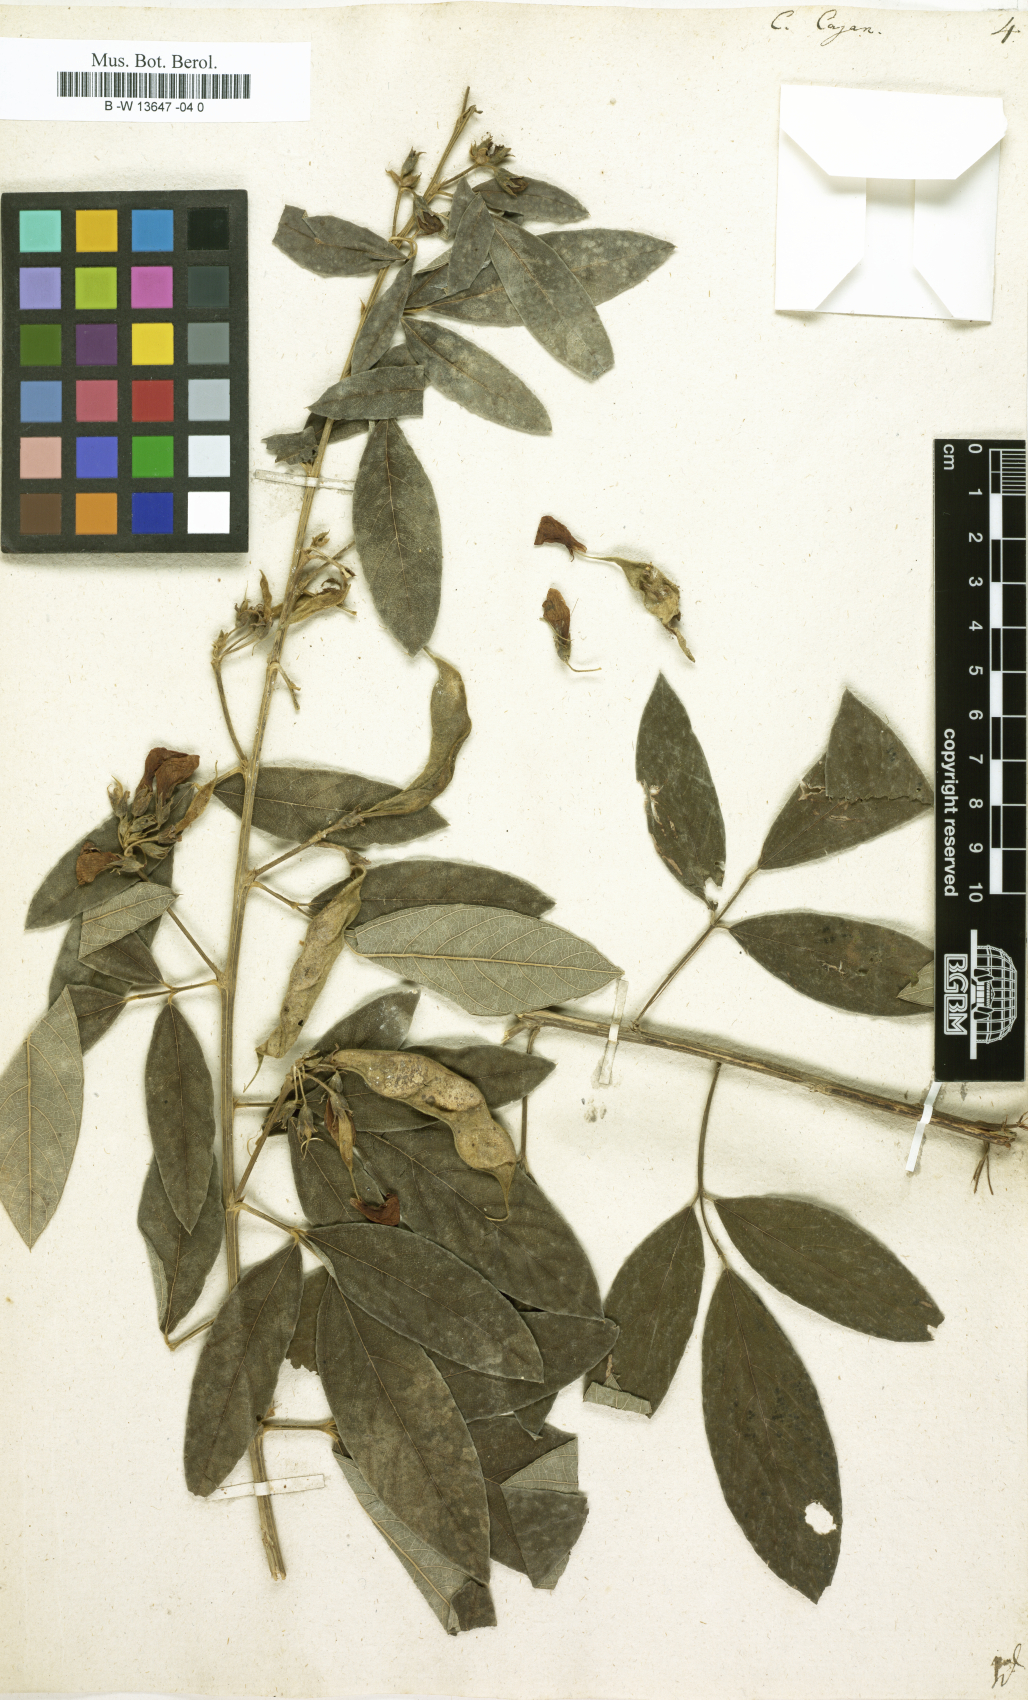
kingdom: Plantae
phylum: Tracheophyta
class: Magnoliopsida
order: Fabales
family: Fabaceae
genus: Cajanus
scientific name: Cajanus cajan
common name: Pigeonpea
